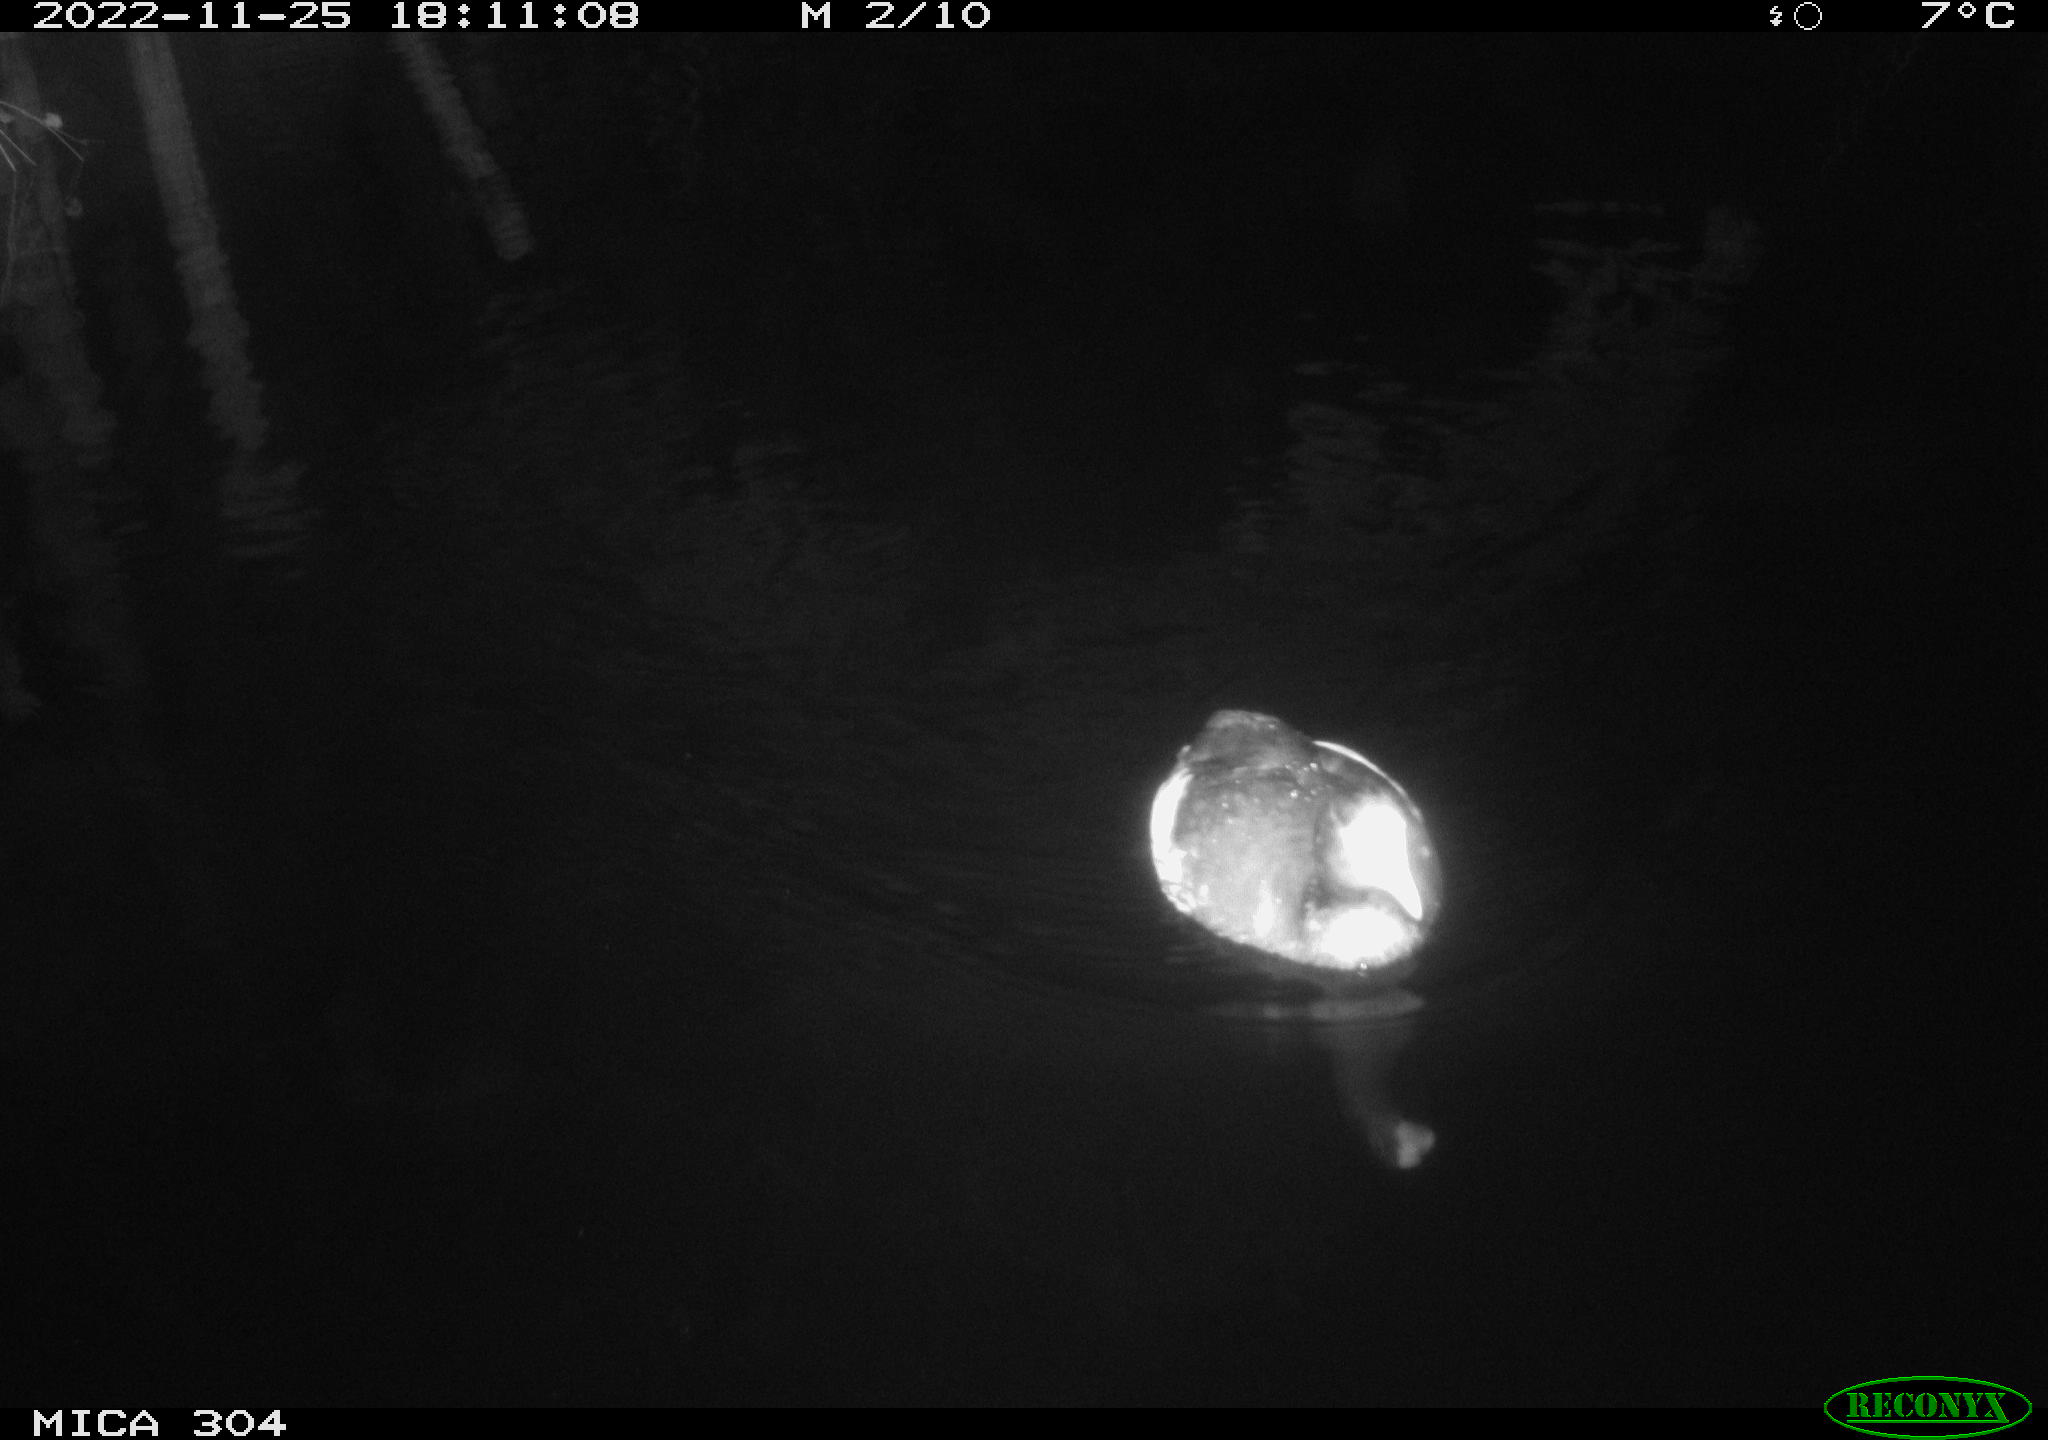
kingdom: Animalia
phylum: Chordata
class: Aves
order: Anseriformes
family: Anatidae
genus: Anas
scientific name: Anas
